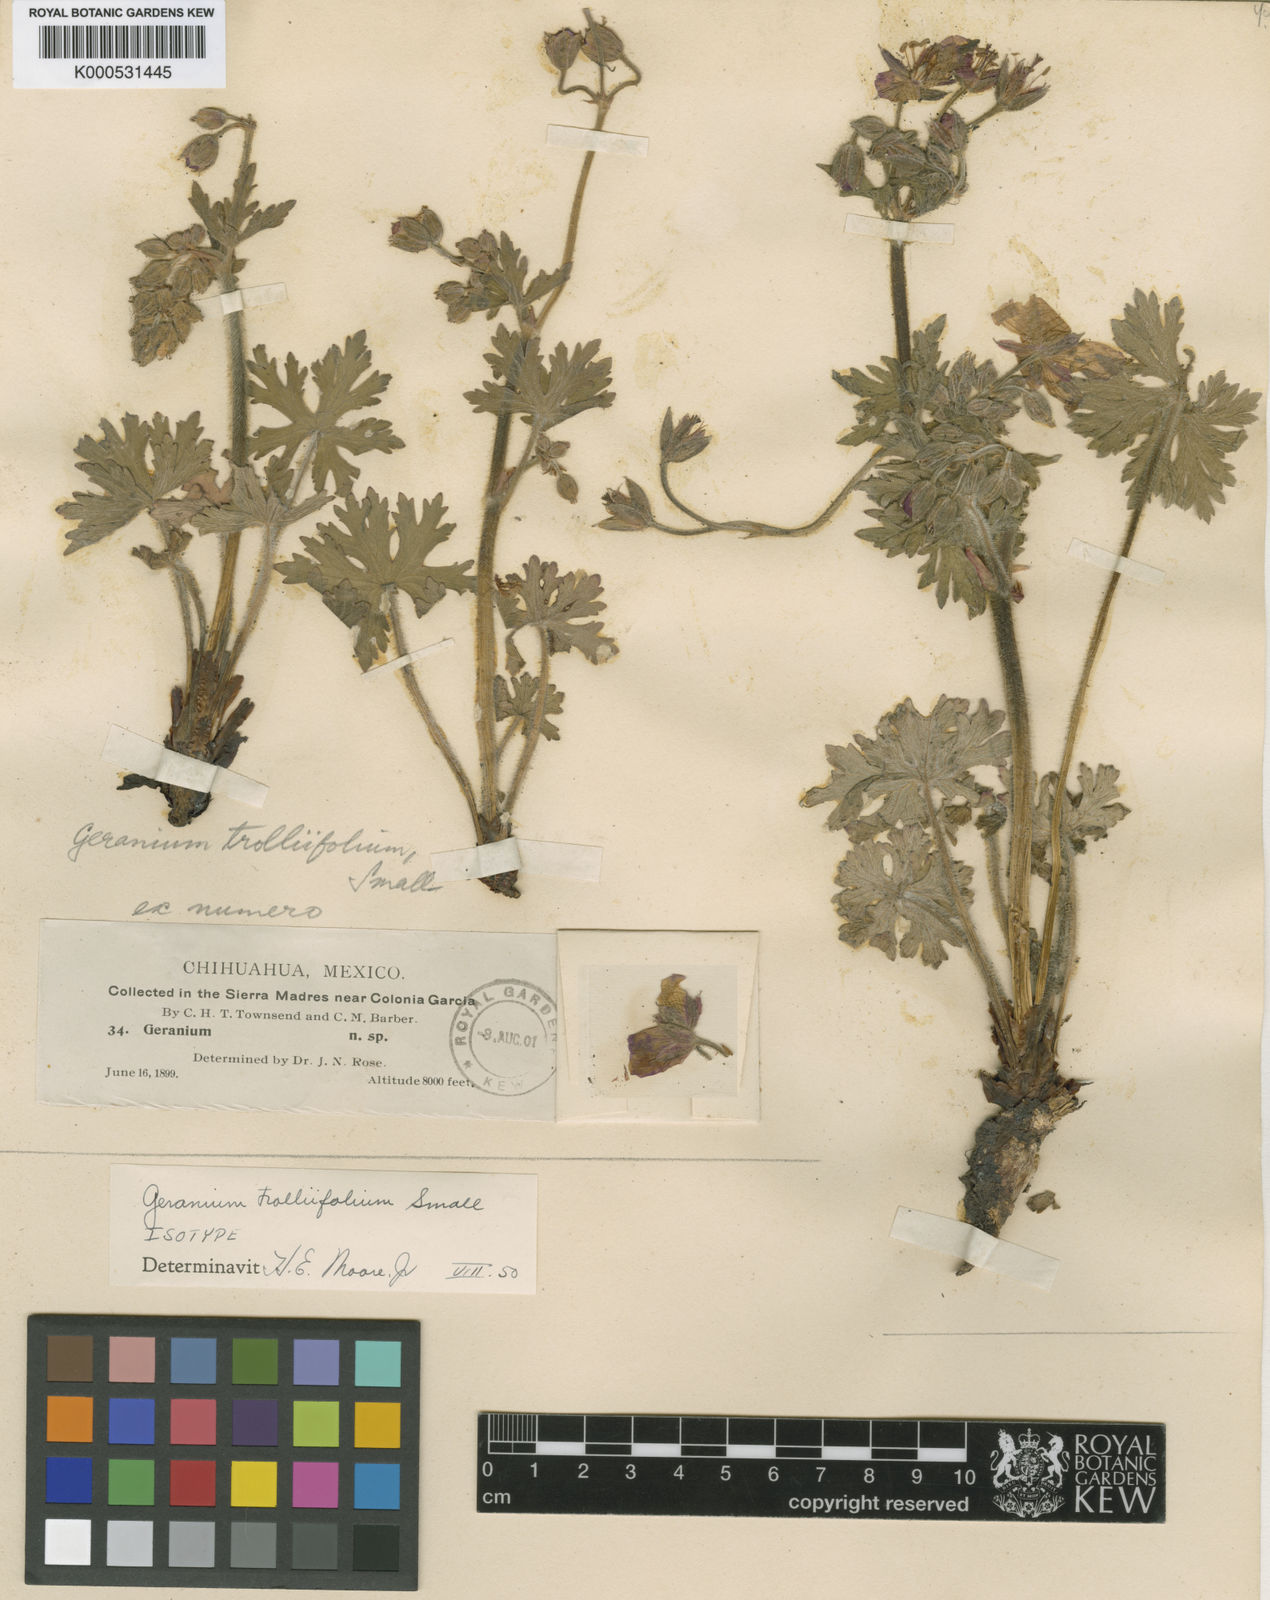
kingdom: Plantae
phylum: Tracheophyta
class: Magnoliopsida
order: Geraniales
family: Geraniaceae
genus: Geranium
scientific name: Geranium trolliifolium
